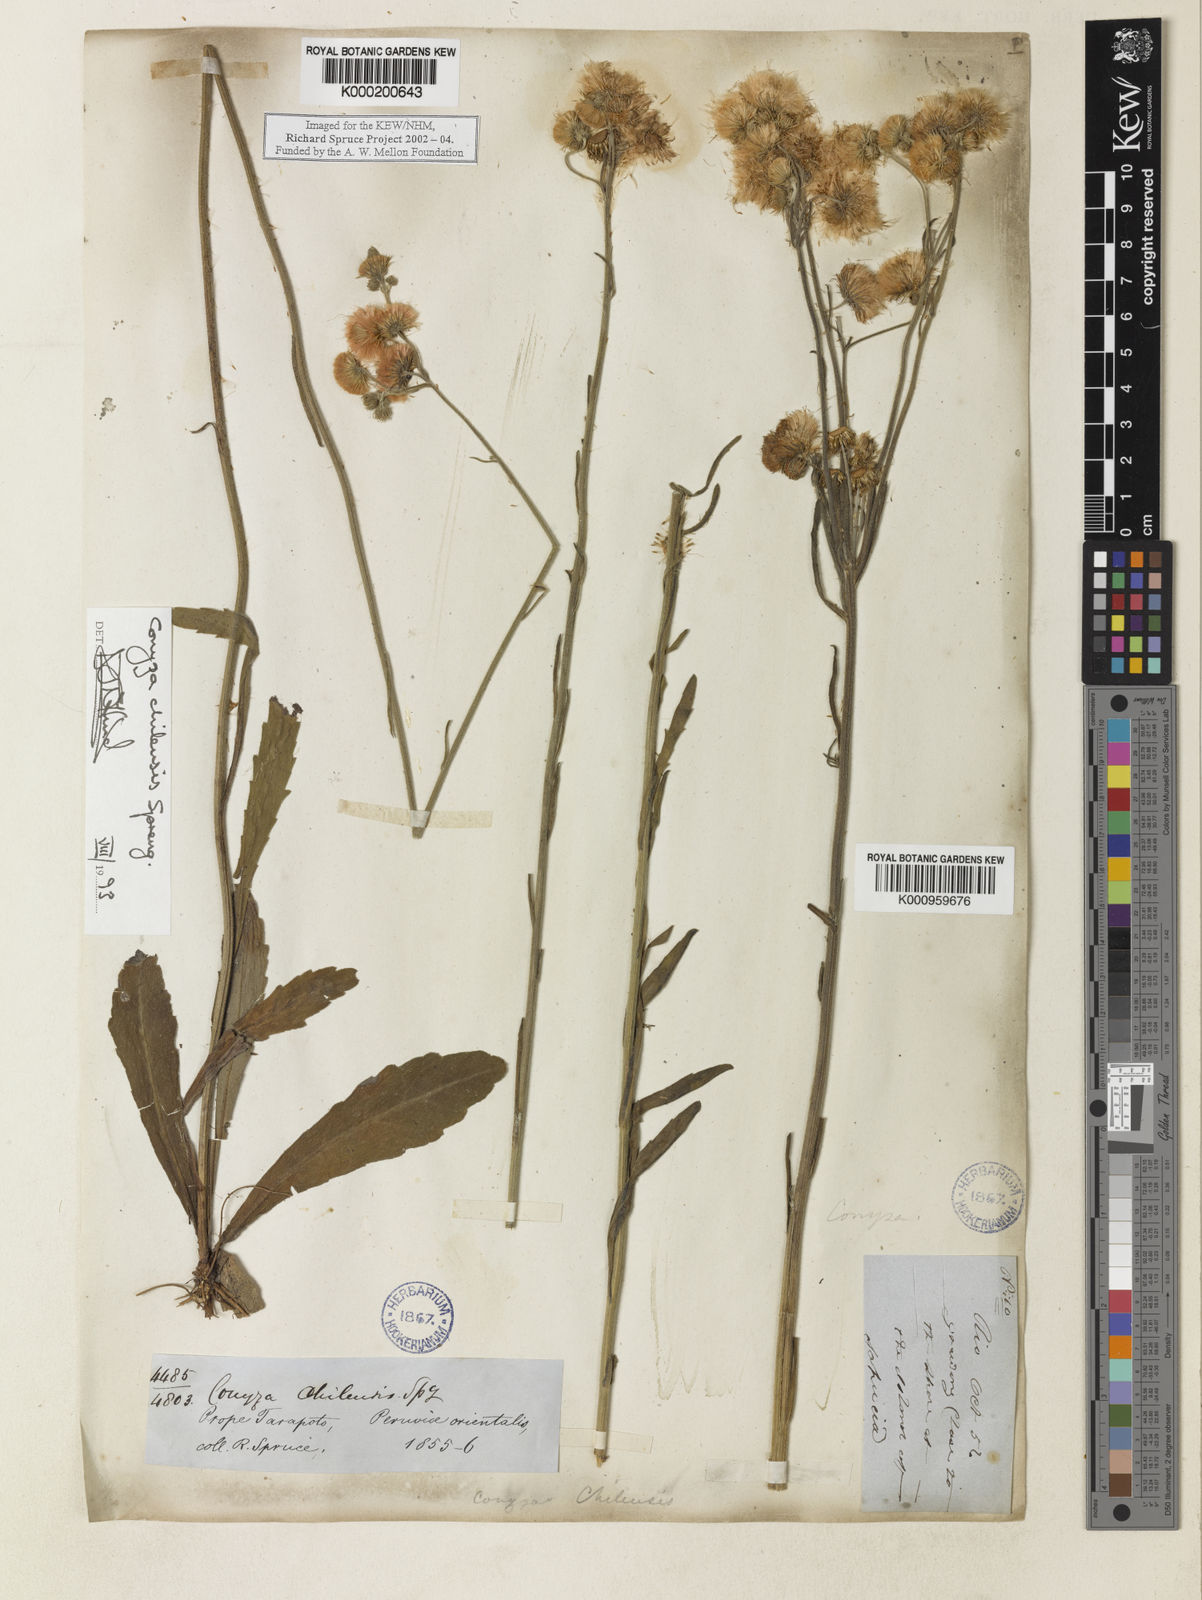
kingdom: Plantae
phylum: Tracheophyta
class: Magnoliopsida
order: Asterales
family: Asteraceae
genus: Erigeron
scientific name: Erigeron primulifolius
